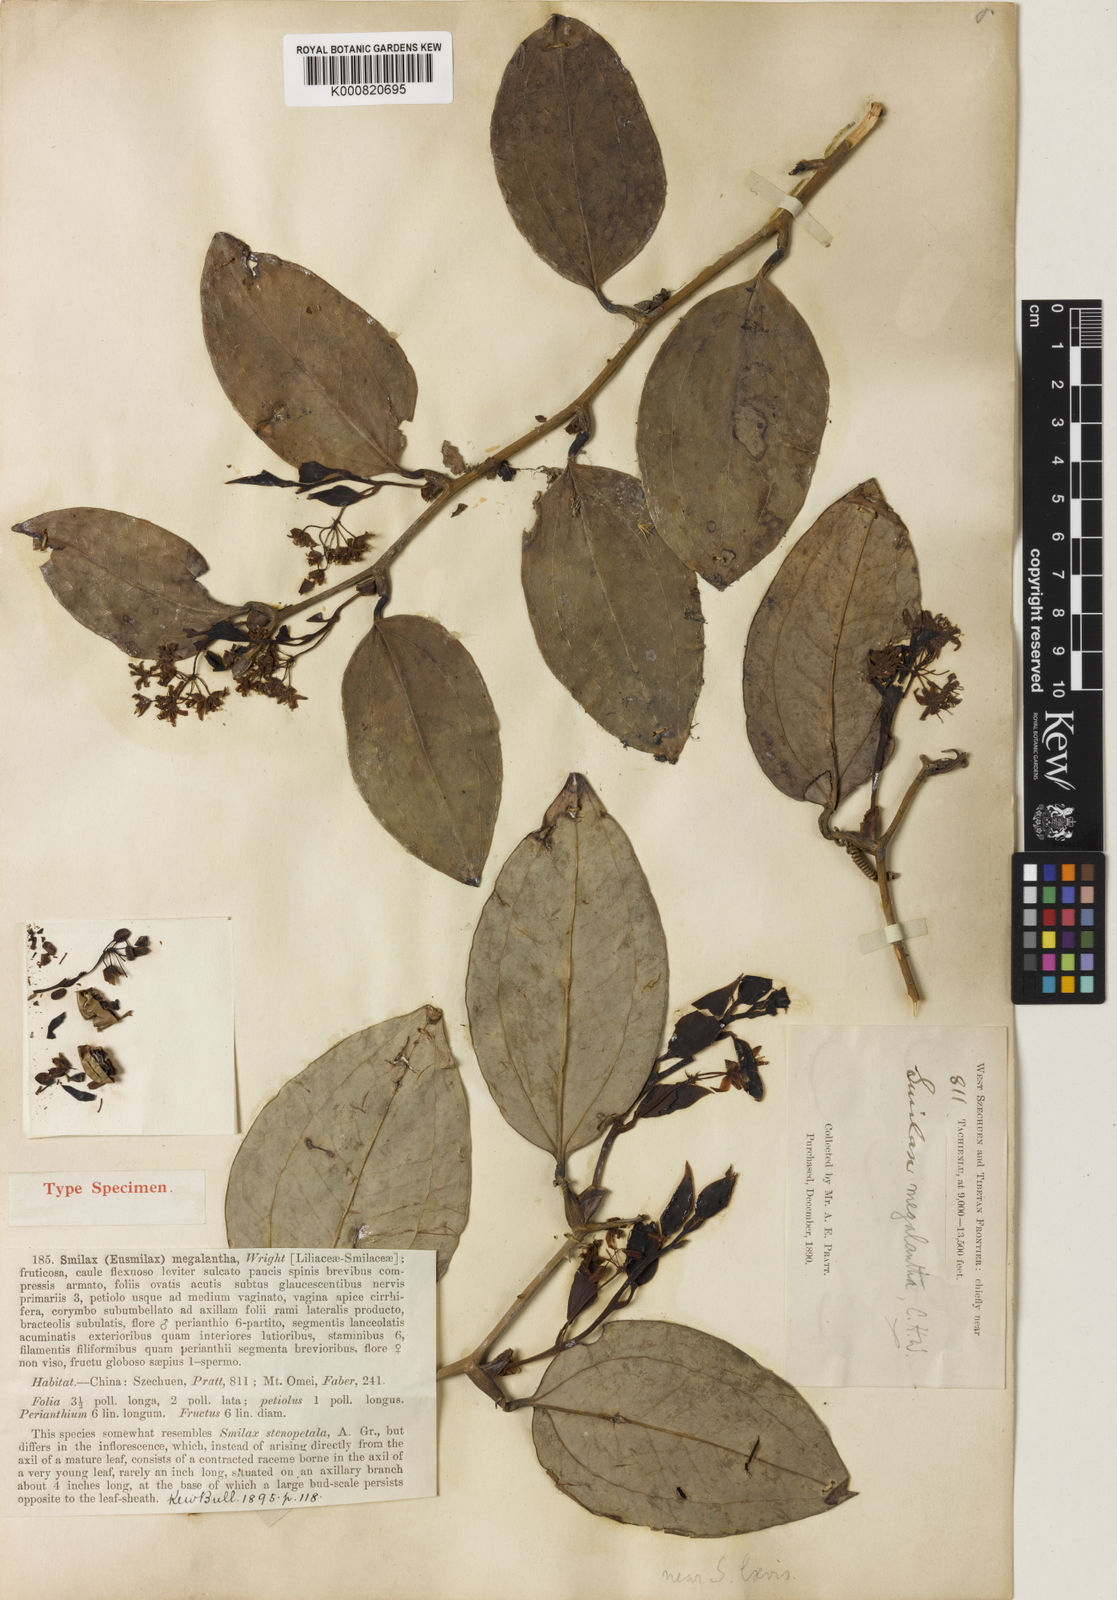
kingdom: Plantae
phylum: Tracheophyta
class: Liliopsida
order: Liliales
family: Smilacaceae
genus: Smilax
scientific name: Smilax megalantha
